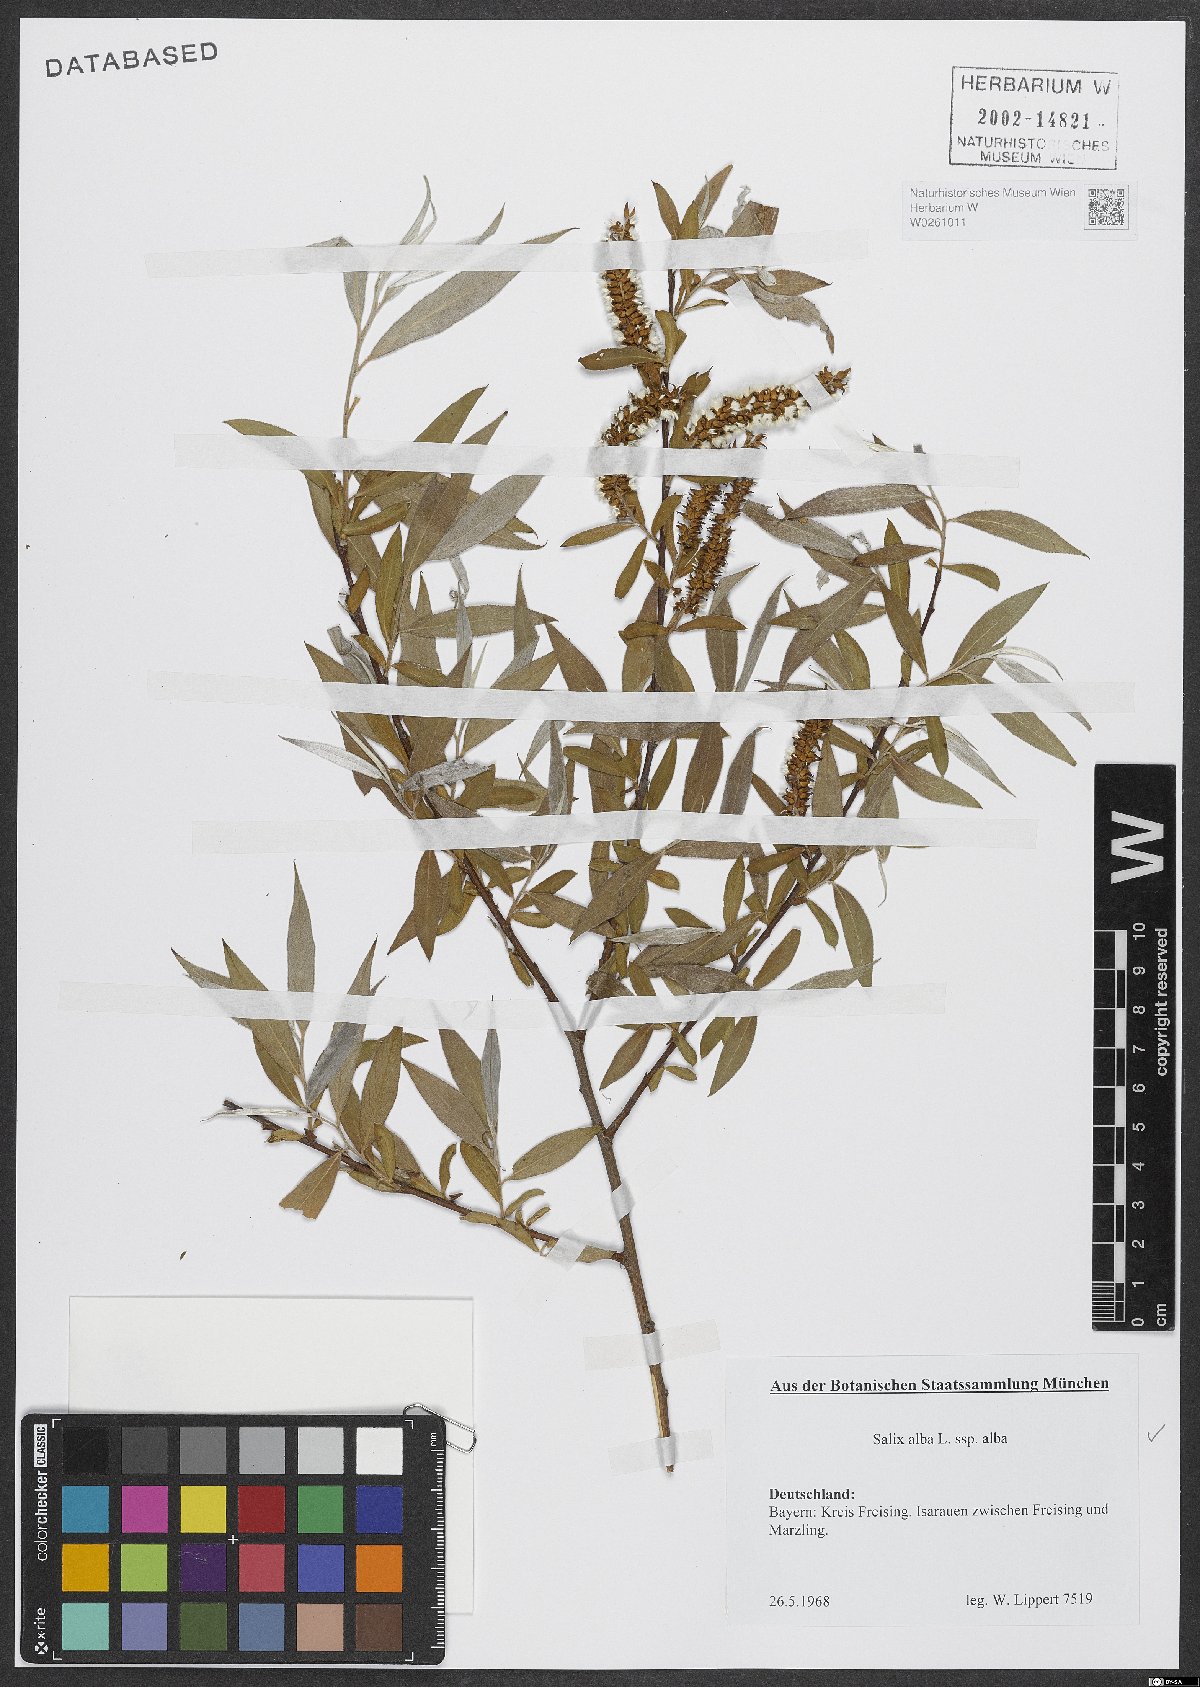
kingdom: Plantae
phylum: Tracheophyta
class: Magnoliopsida
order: Malpighiales
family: Salicaceae
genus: Salix
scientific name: Salix alba
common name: White willow
